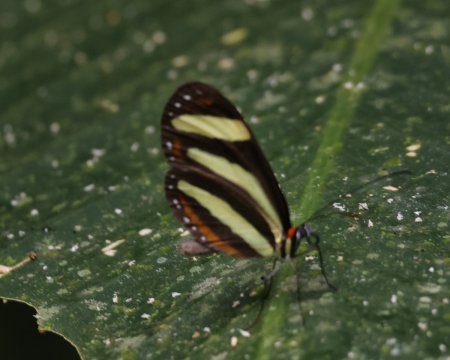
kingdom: Animalia
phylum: Arthropoda
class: Insecta
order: Lepidoptera
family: Nymphalidae
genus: Aeria
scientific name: Aeria eurimedia
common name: Banded Tigerwing
